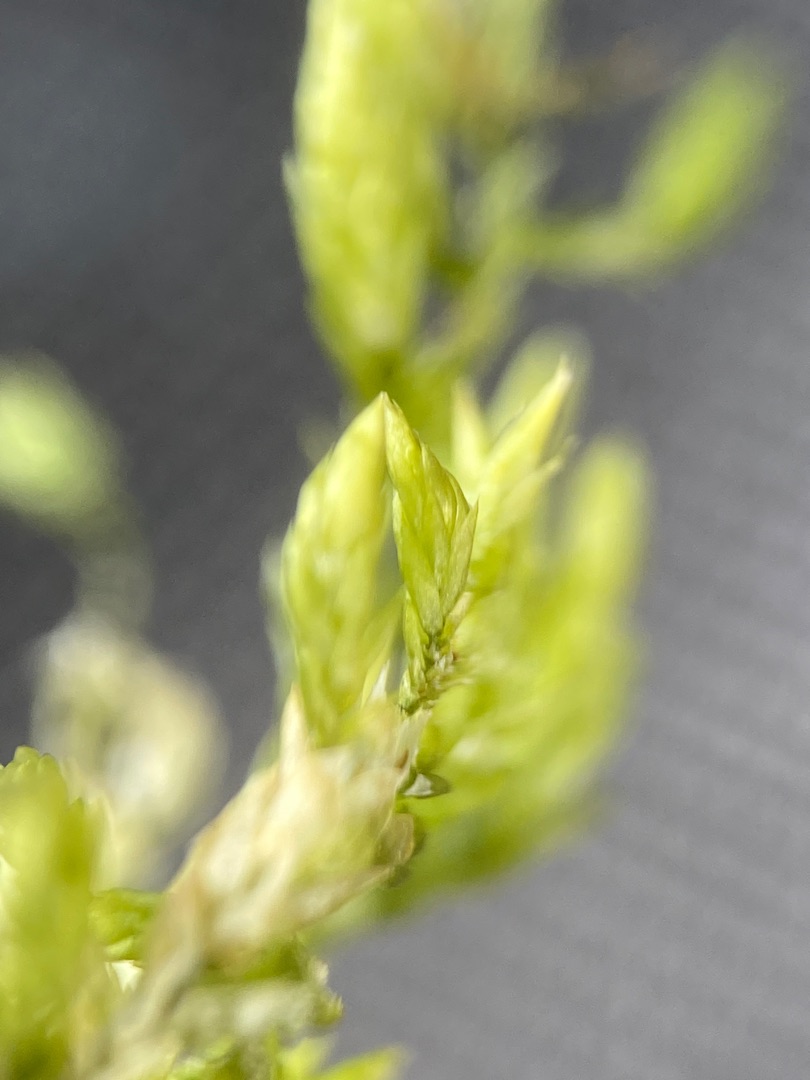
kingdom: Plantae
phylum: Bryophyta
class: Bryopsida
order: Hypnales
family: Lembophyllaceae
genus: Isothecium
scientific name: Isothecium alopecuroides
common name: Stor stammemos
